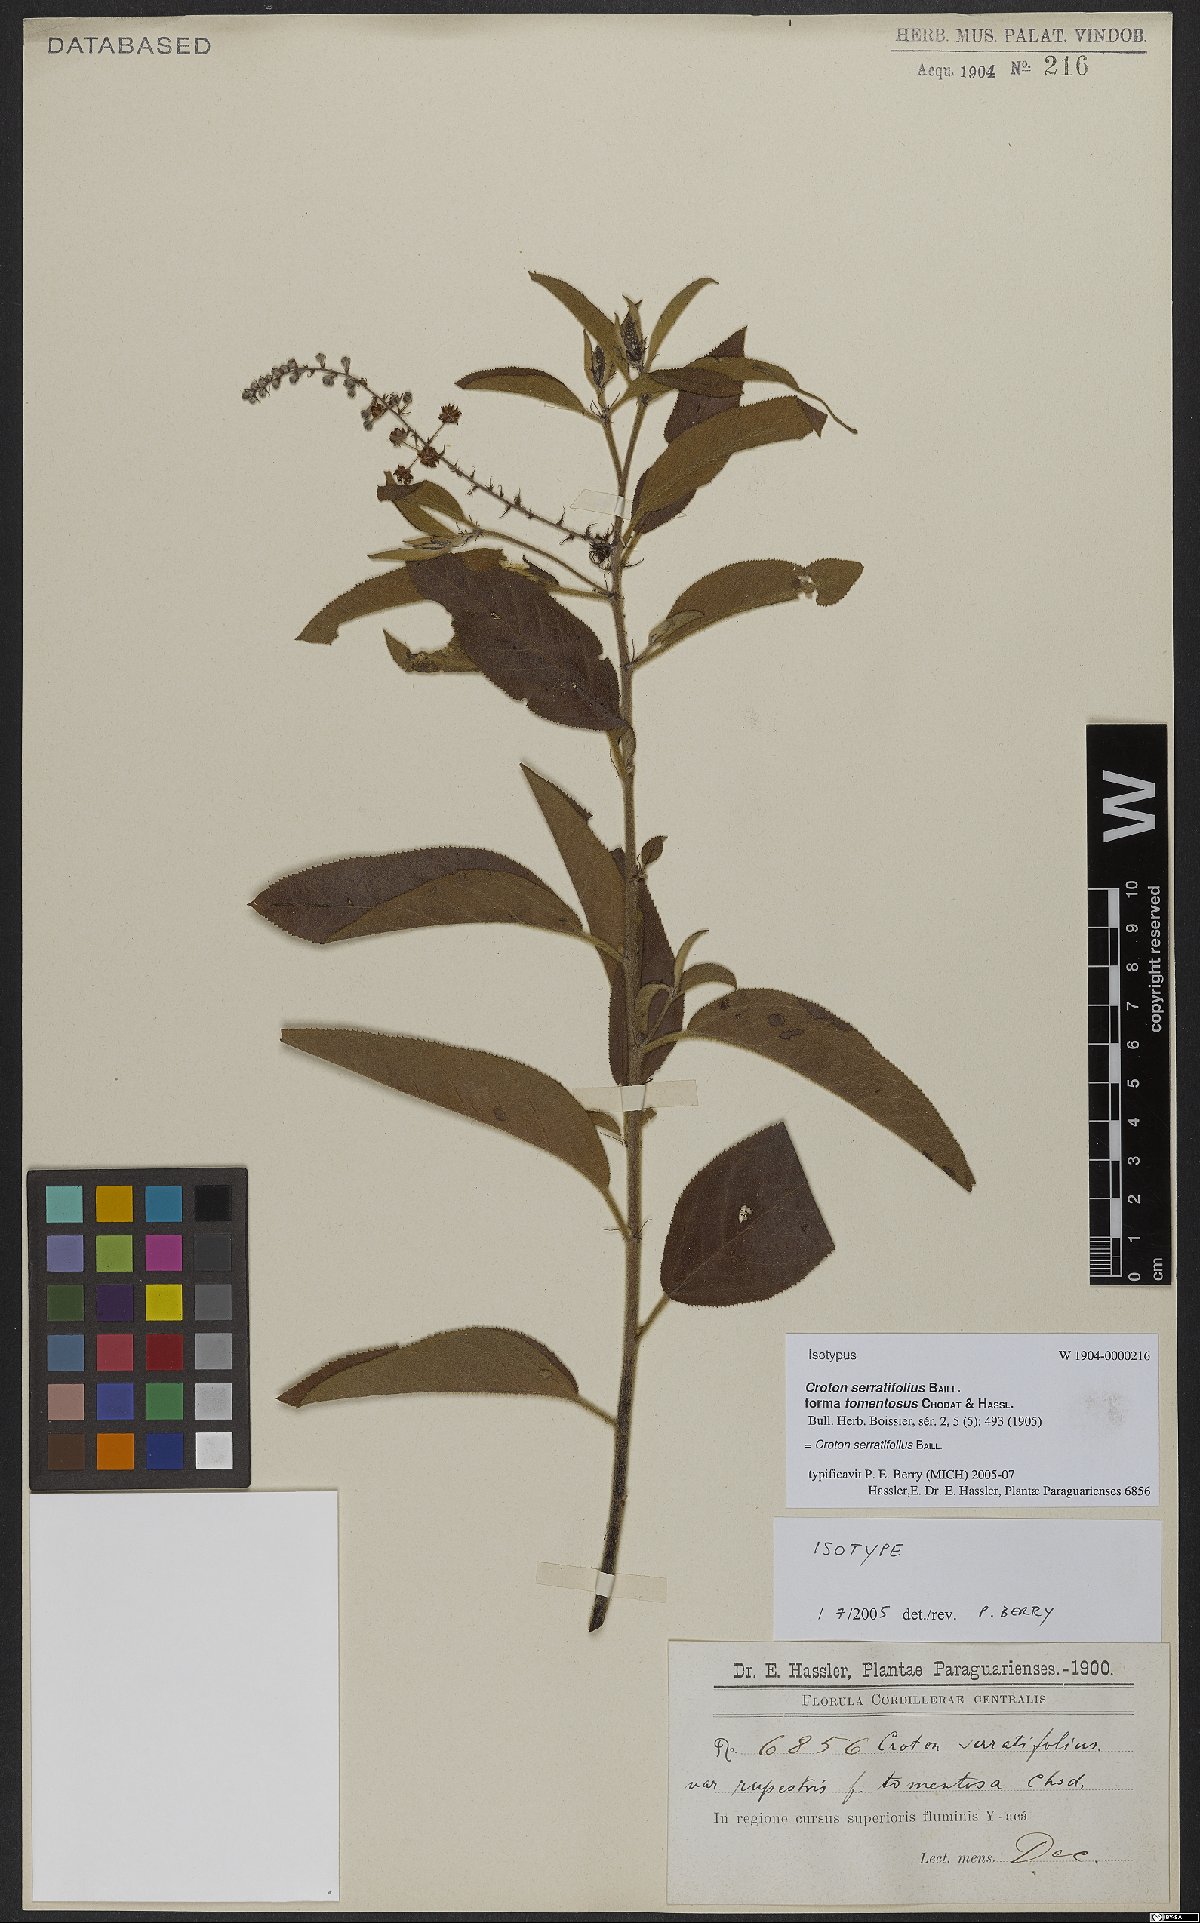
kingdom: Plantae
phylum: Tracheophyta
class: Magnoliopsida
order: Malpighiales
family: Euphorbiaceae
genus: Croton
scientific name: Croton serratifolius
